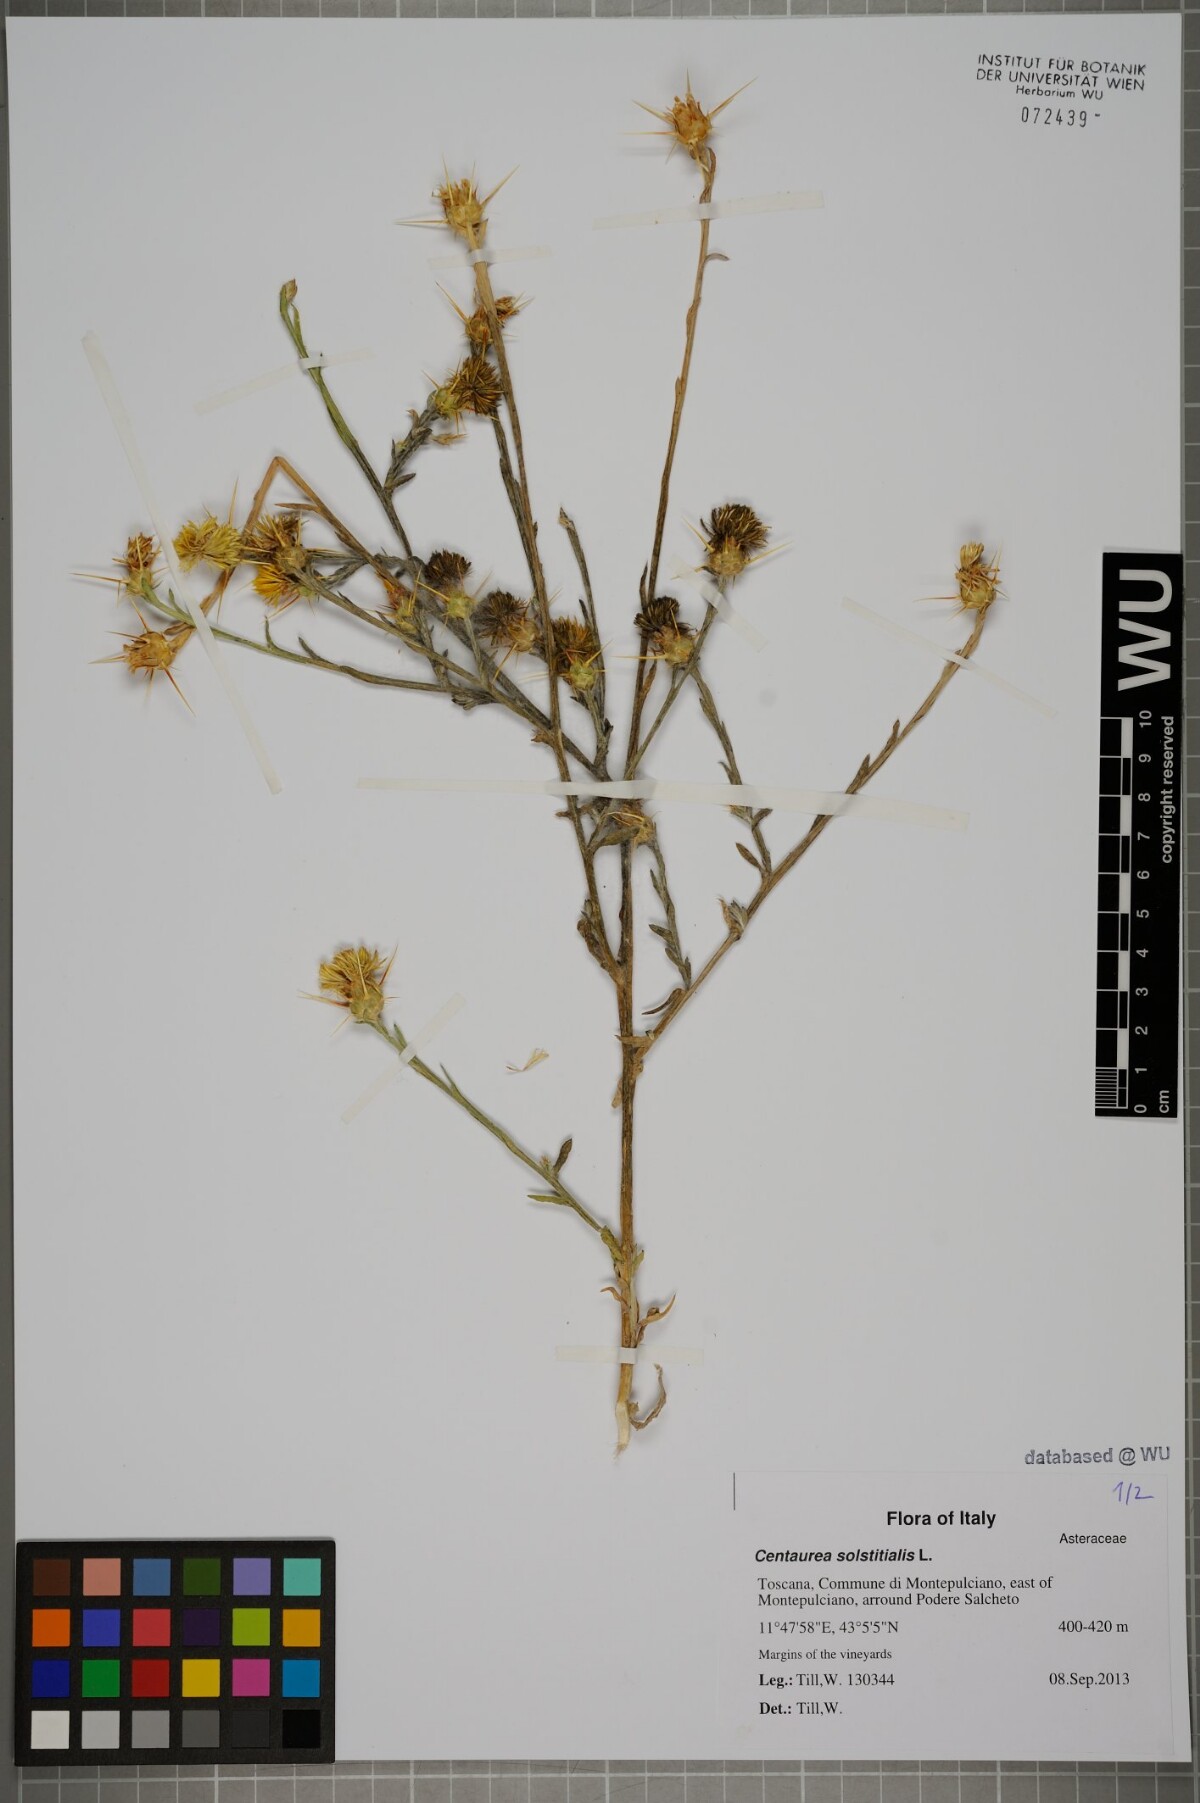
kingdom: Plantae
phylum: Tracheophyta
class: Magnoliopsida
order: Asterales
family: Asteraceae
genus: Centaurea
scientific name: Centaurea solstitialis
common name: Yellow star-thistle
